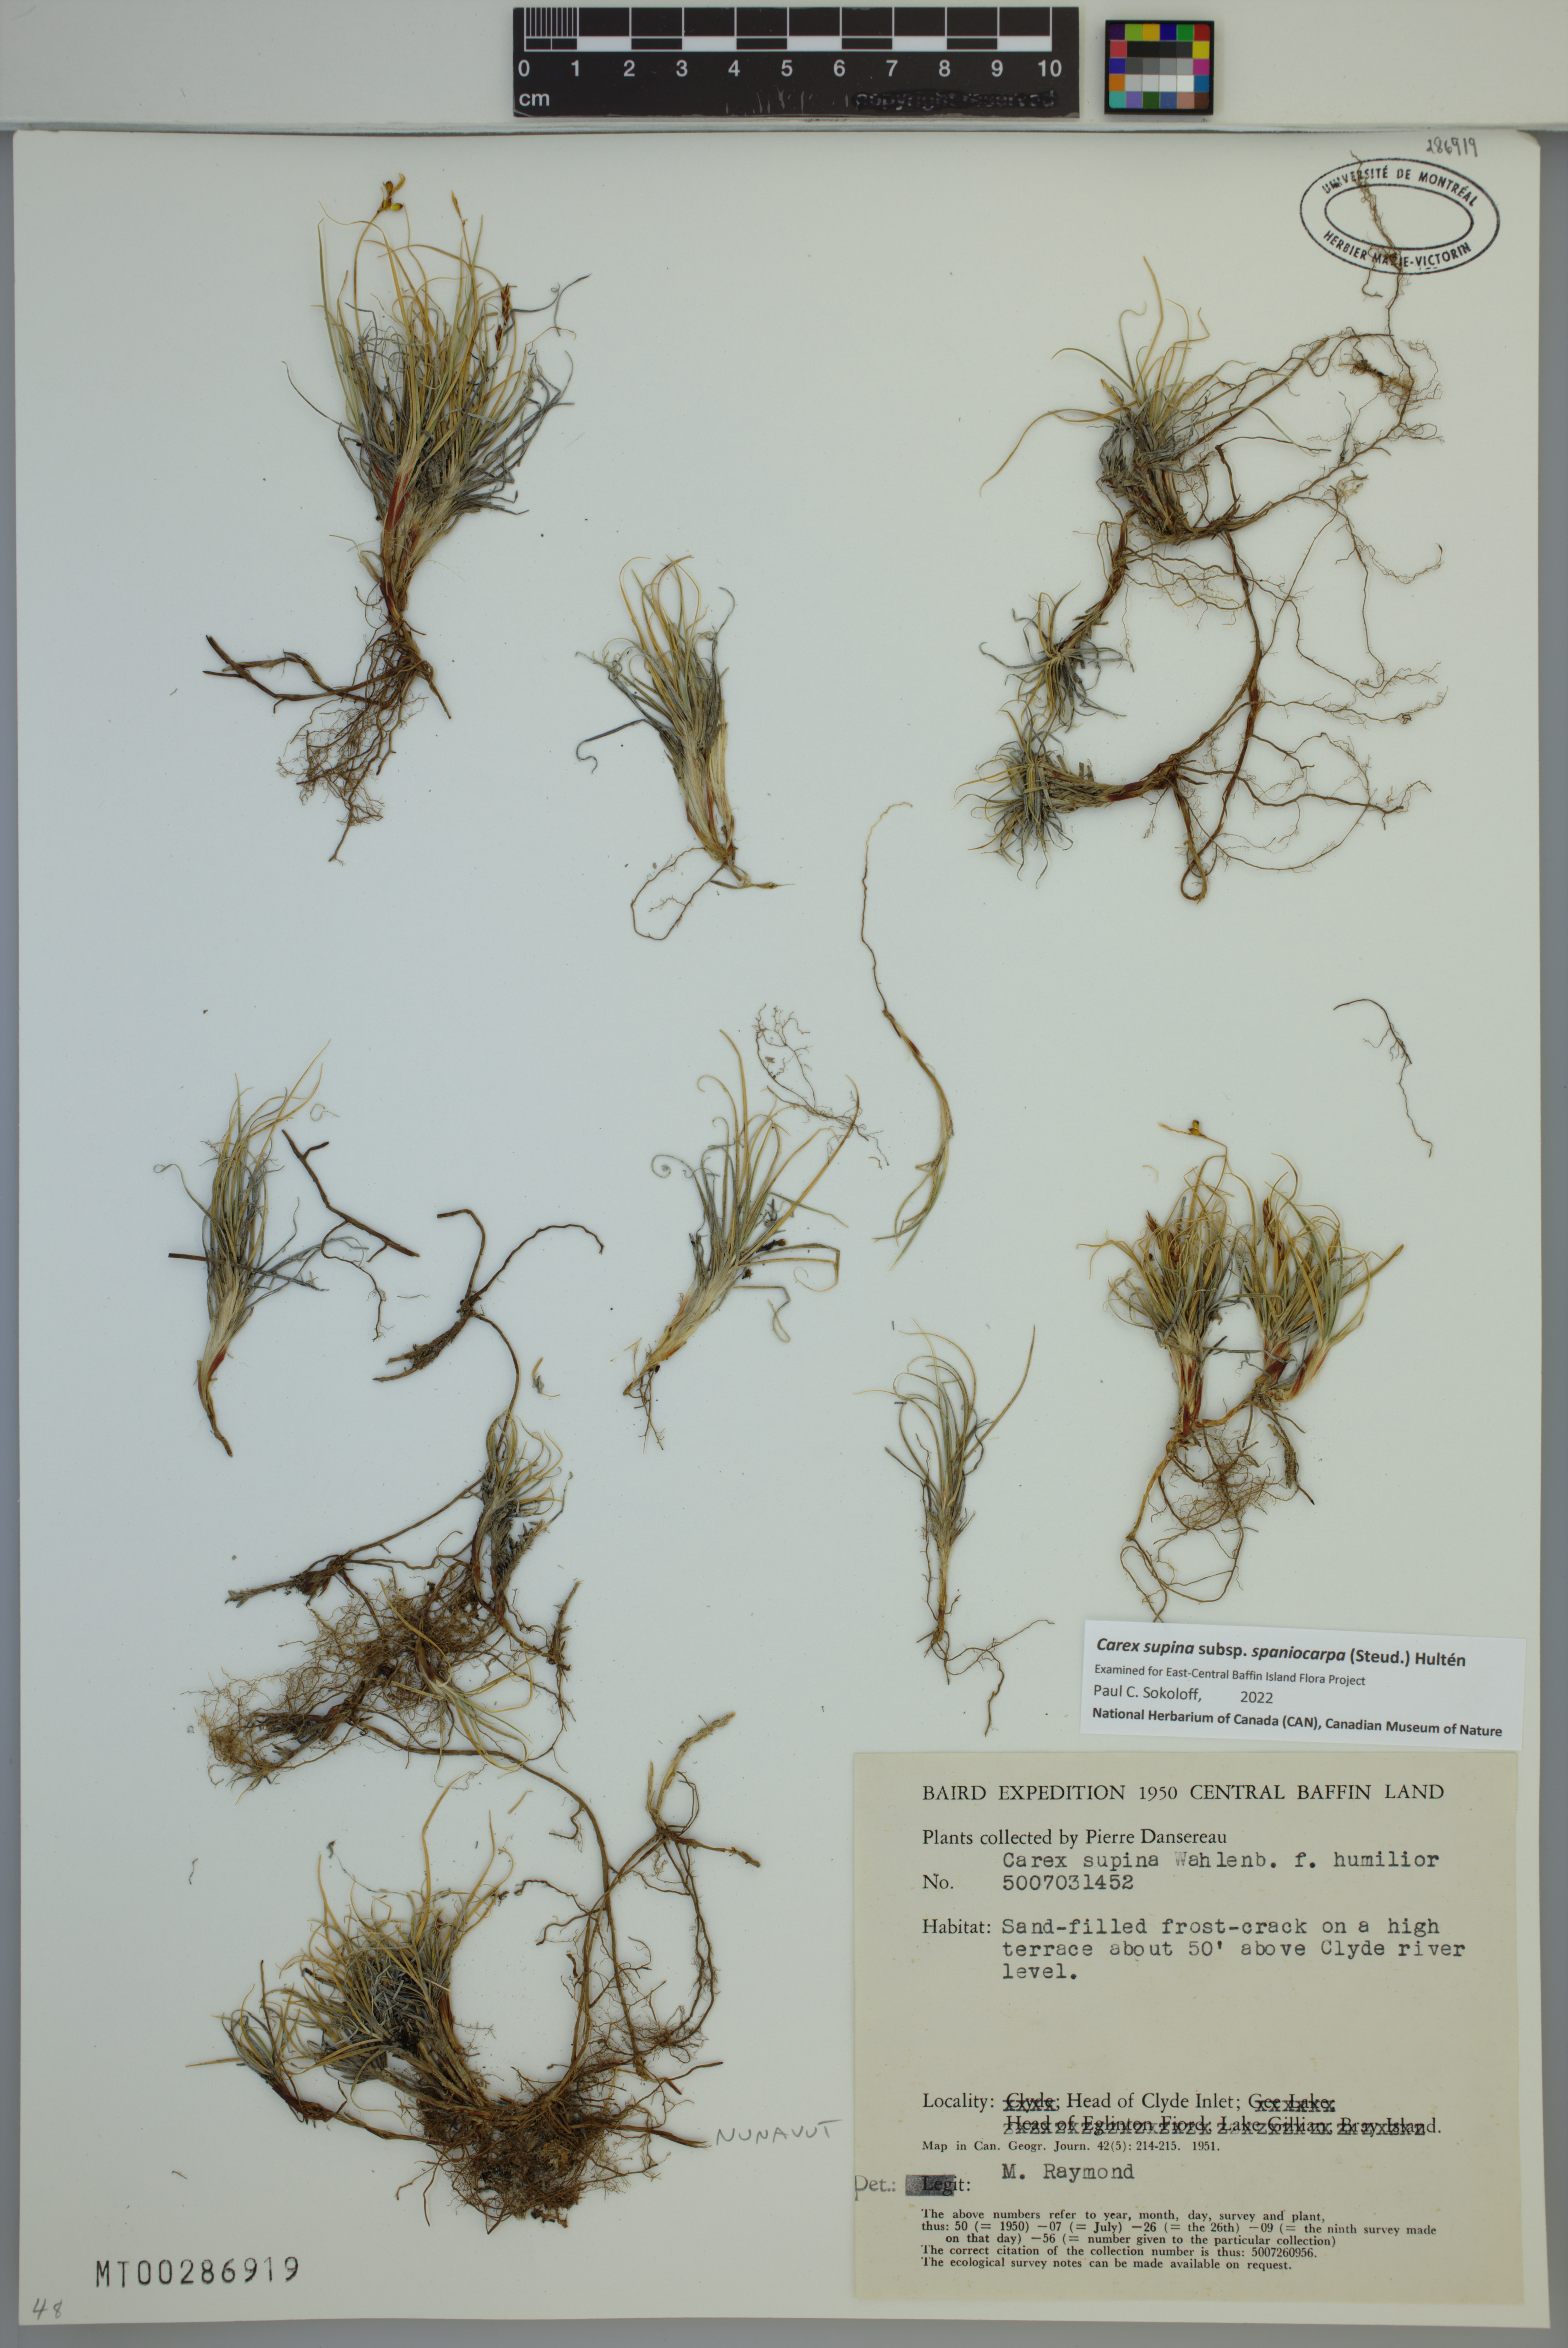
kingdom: Plantae
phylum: Tracheophyta
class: Liliopsida
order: Poales
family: Cyperaceae
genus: Carex
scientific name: Carex supina
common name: Lying-back sedge
